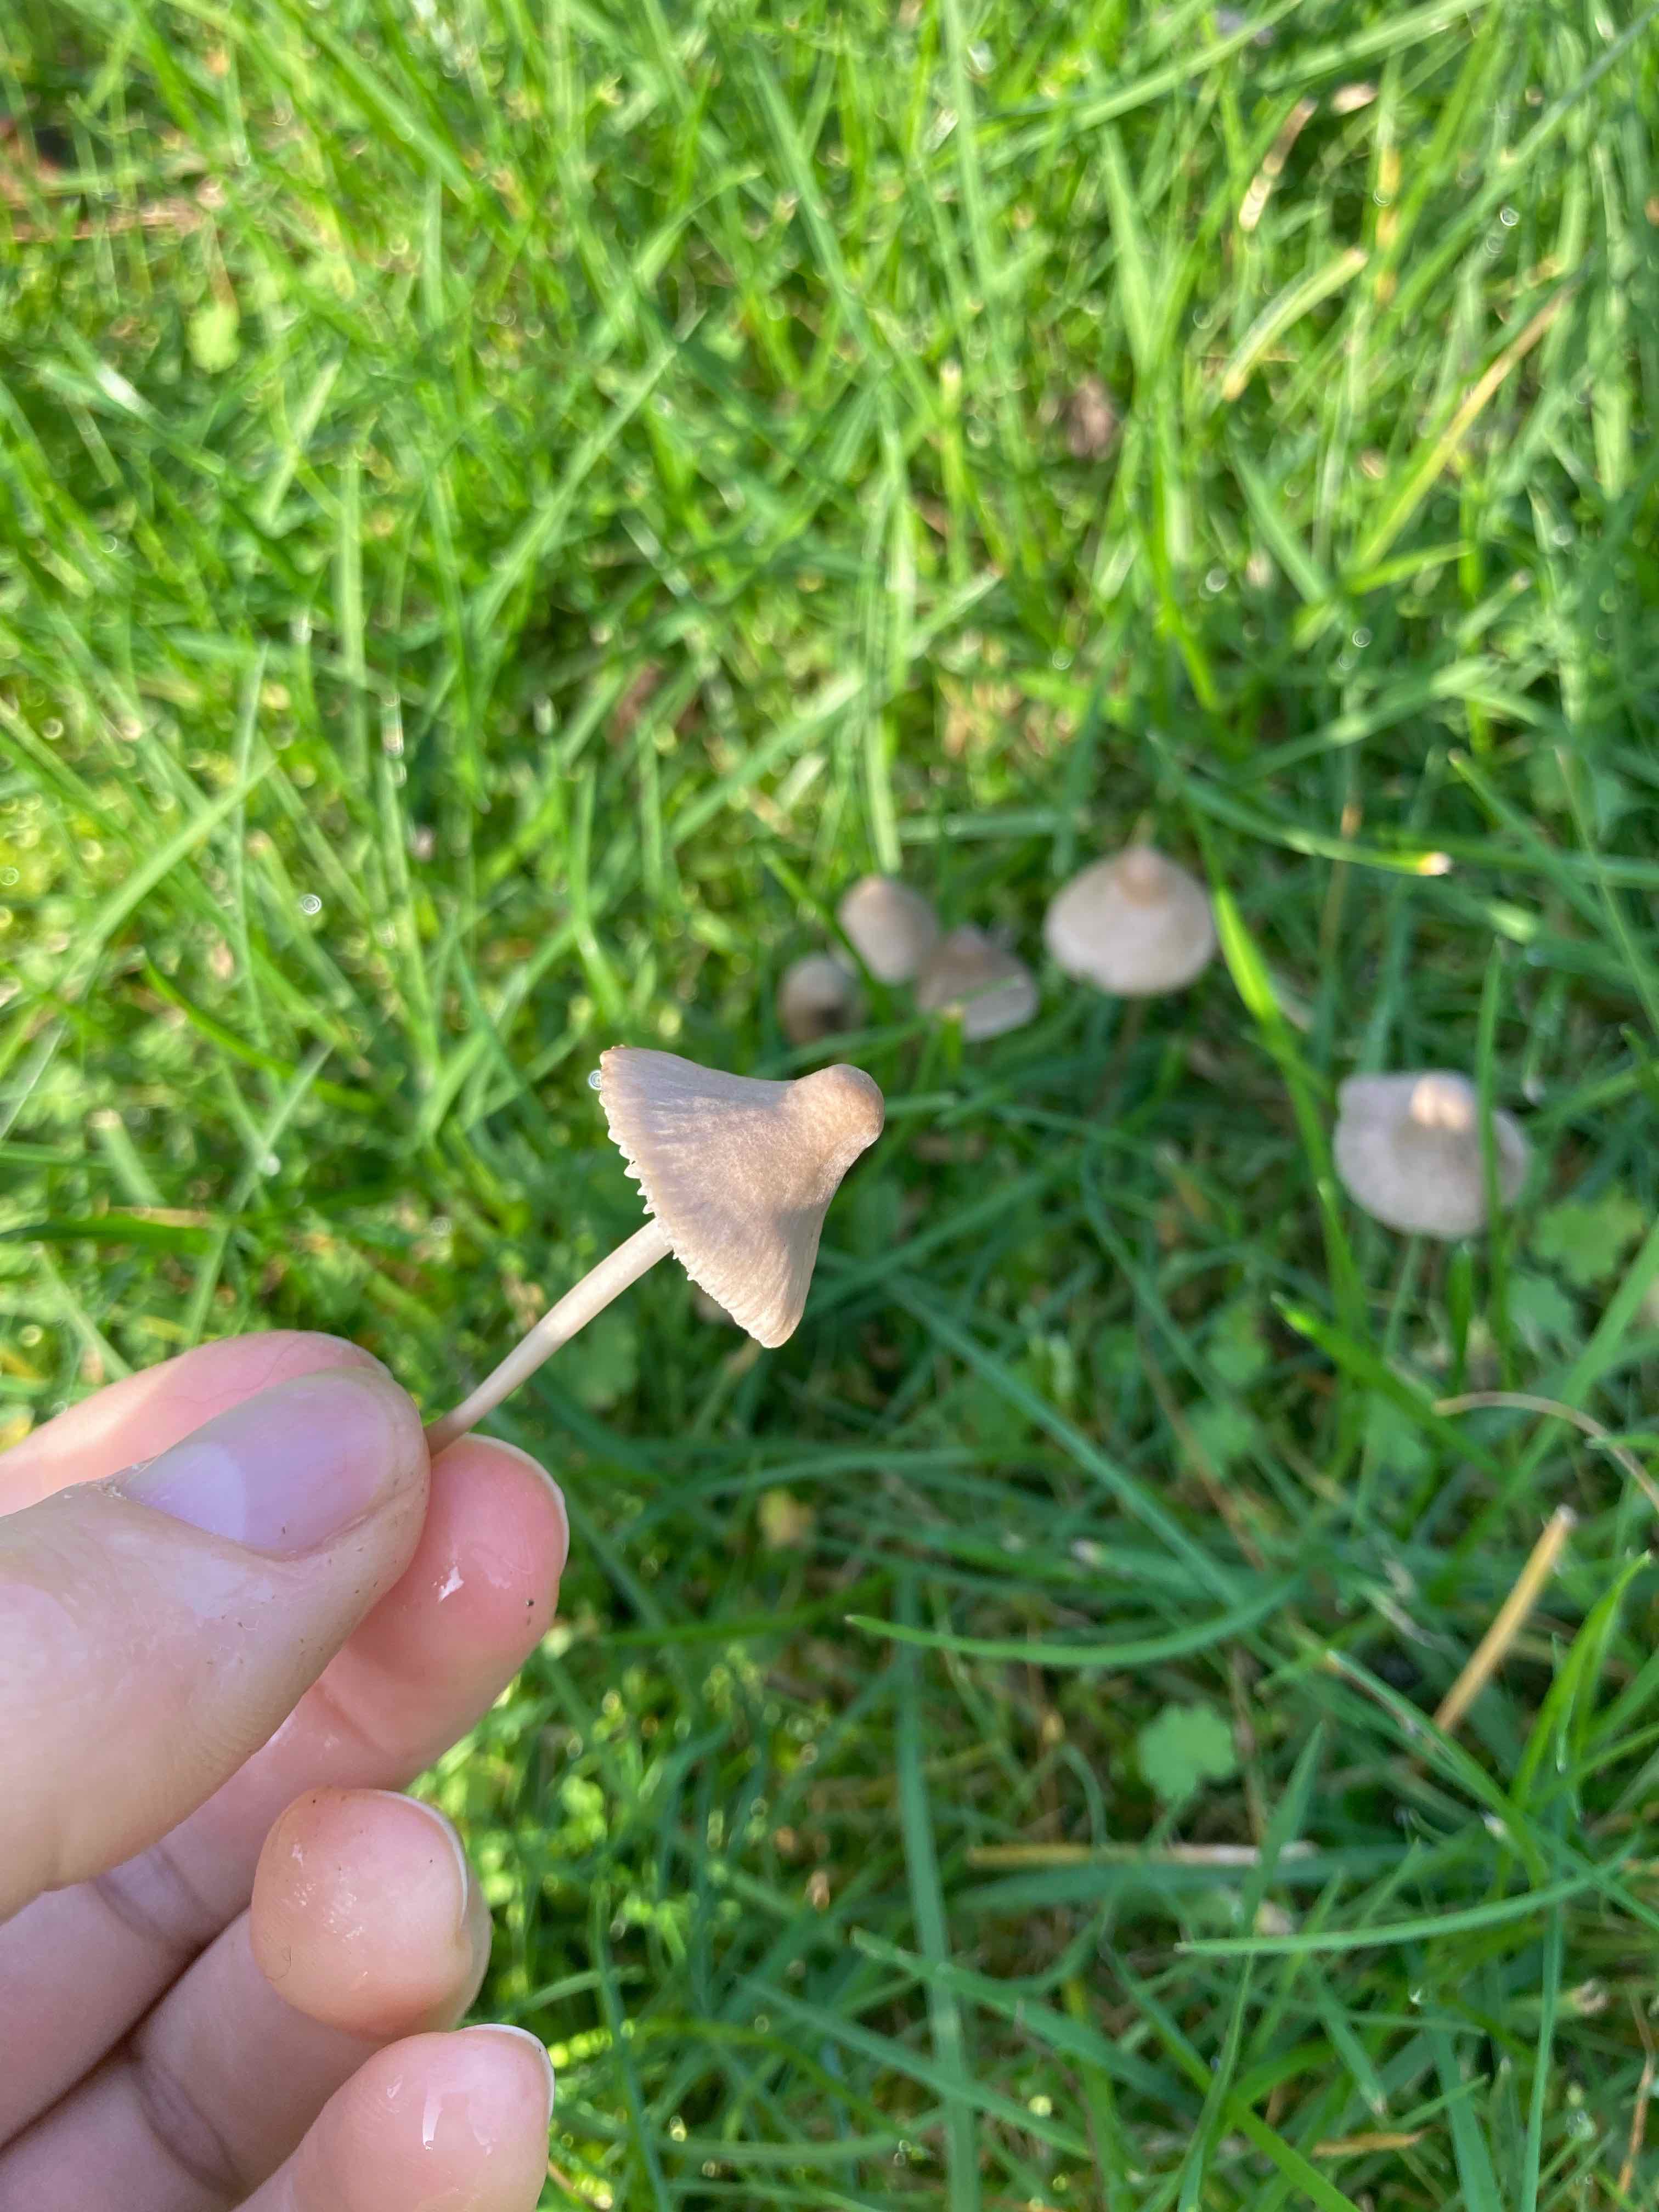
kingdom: Fungi
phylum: Basidiomycota
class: Agaricomycetes
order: Agaricales
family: Mycenaceae
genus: Mycena
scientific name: Mycena
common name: huesvamp
